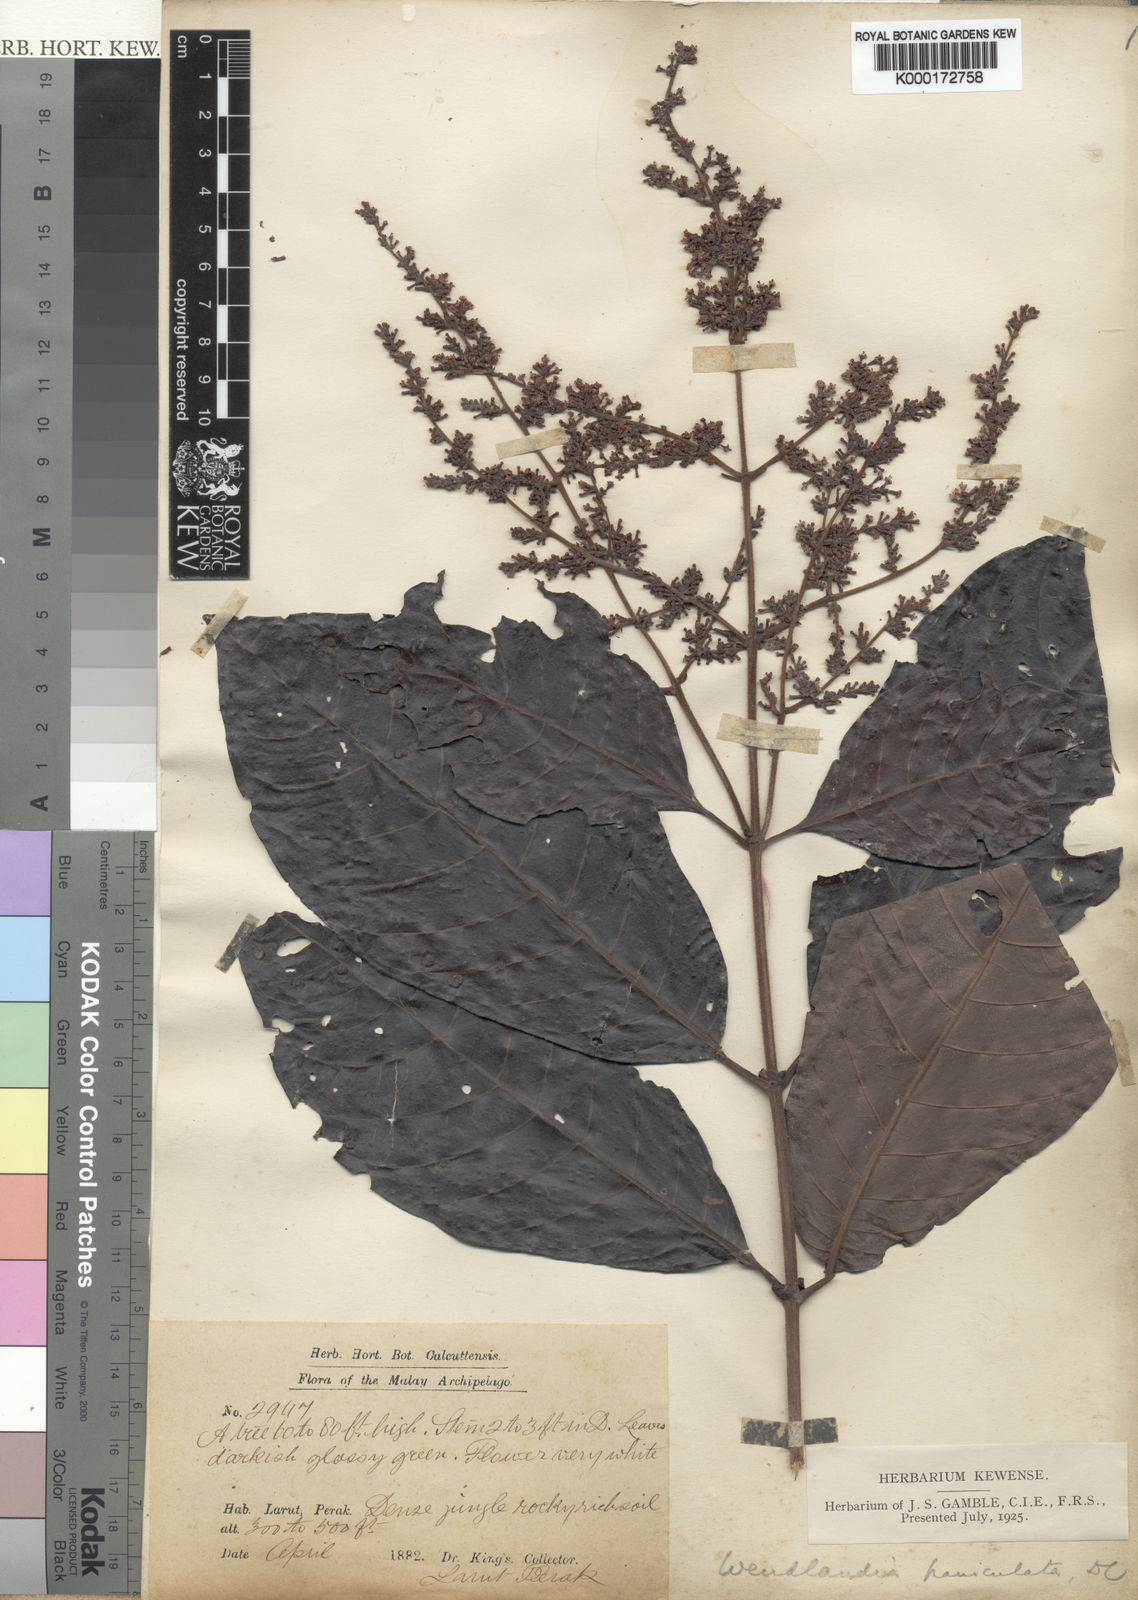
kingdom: Plantae
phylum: Tracheophyta
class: Magnoliopsida
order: Gentianales
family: Rubiaceae
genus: Wendlandia
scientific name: Wendlandia arborescens
